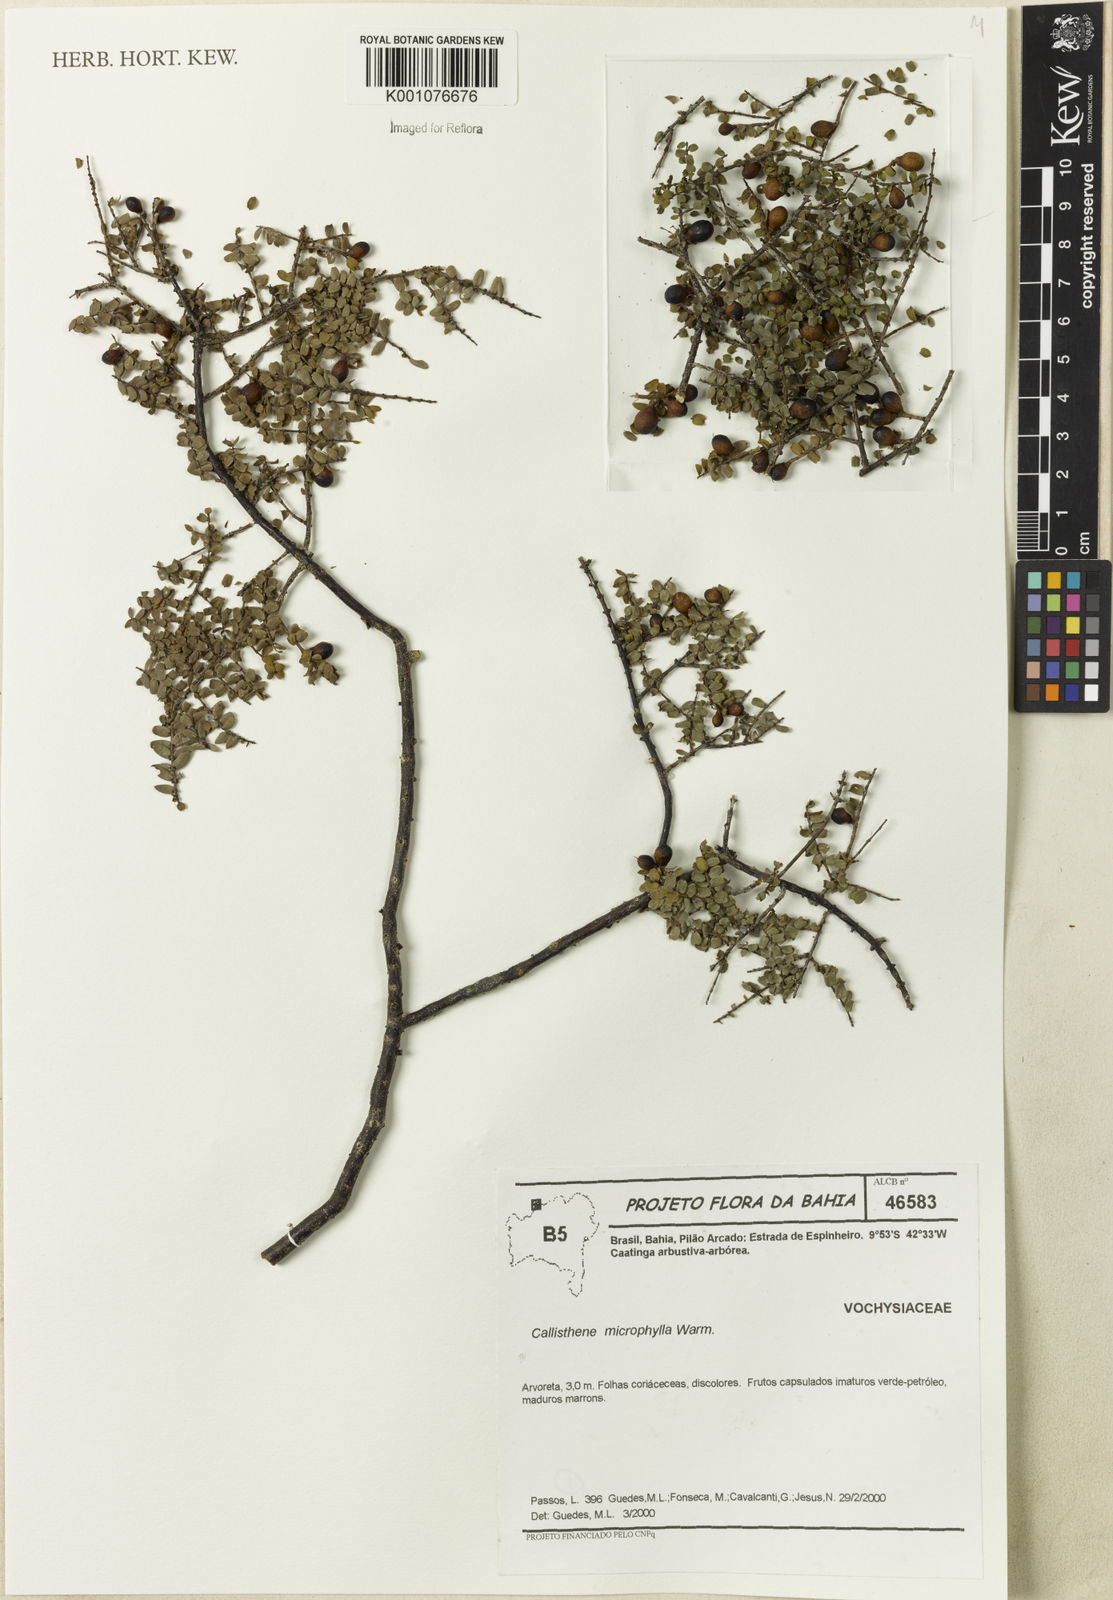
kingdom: Plantae
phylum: Tracheophyta
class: Magnoliopsida
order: Myrtales
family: Vochysiaceae
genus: Callisthene
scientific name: Callisthene microphylla
